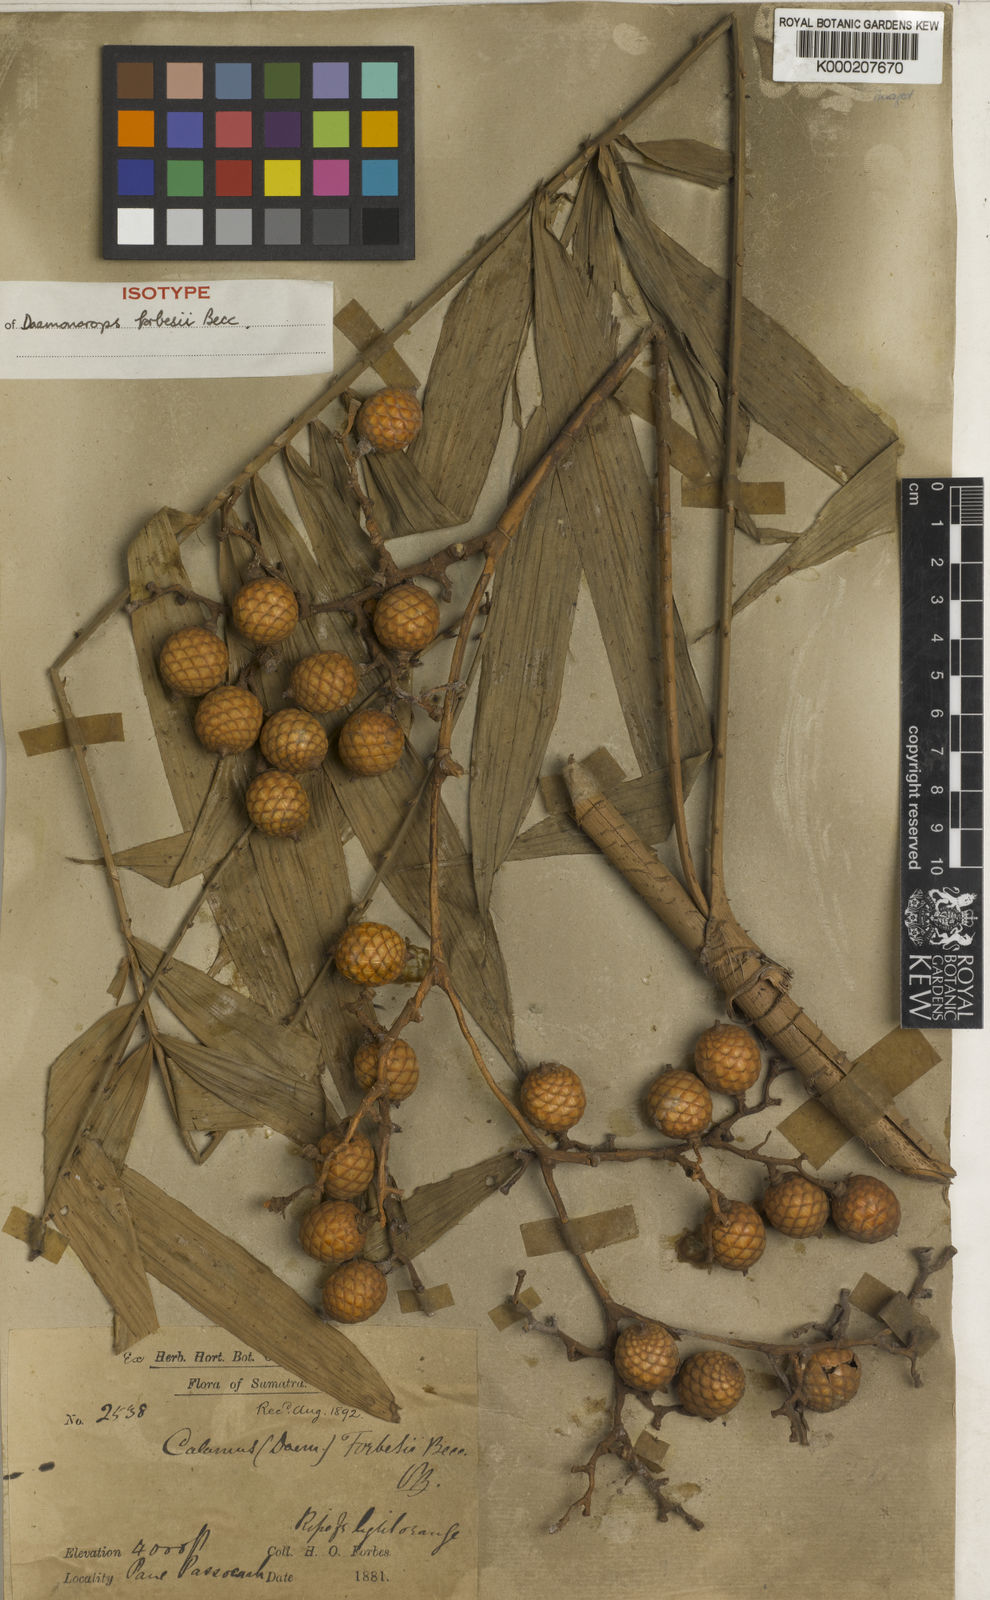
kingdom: Plantae
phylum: Tracheophyta
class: Liliopsida
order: Arecales
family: Arecaceae
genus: Calamus
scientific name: Calamus crinitus
